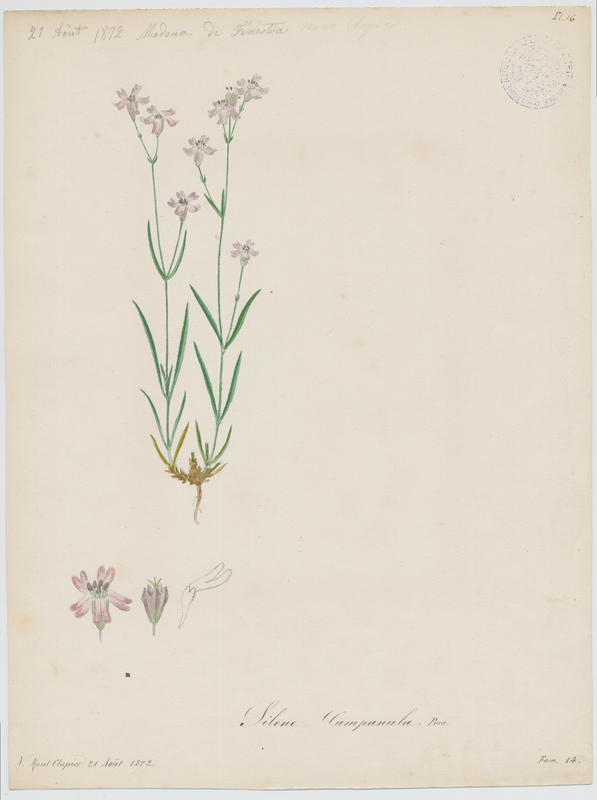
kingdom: Plantae
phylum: Tracheophyta
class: Magnoliopsida
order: Caryophyllales
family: Caryophyllaceae
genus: Silene
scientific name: Silene campanula
